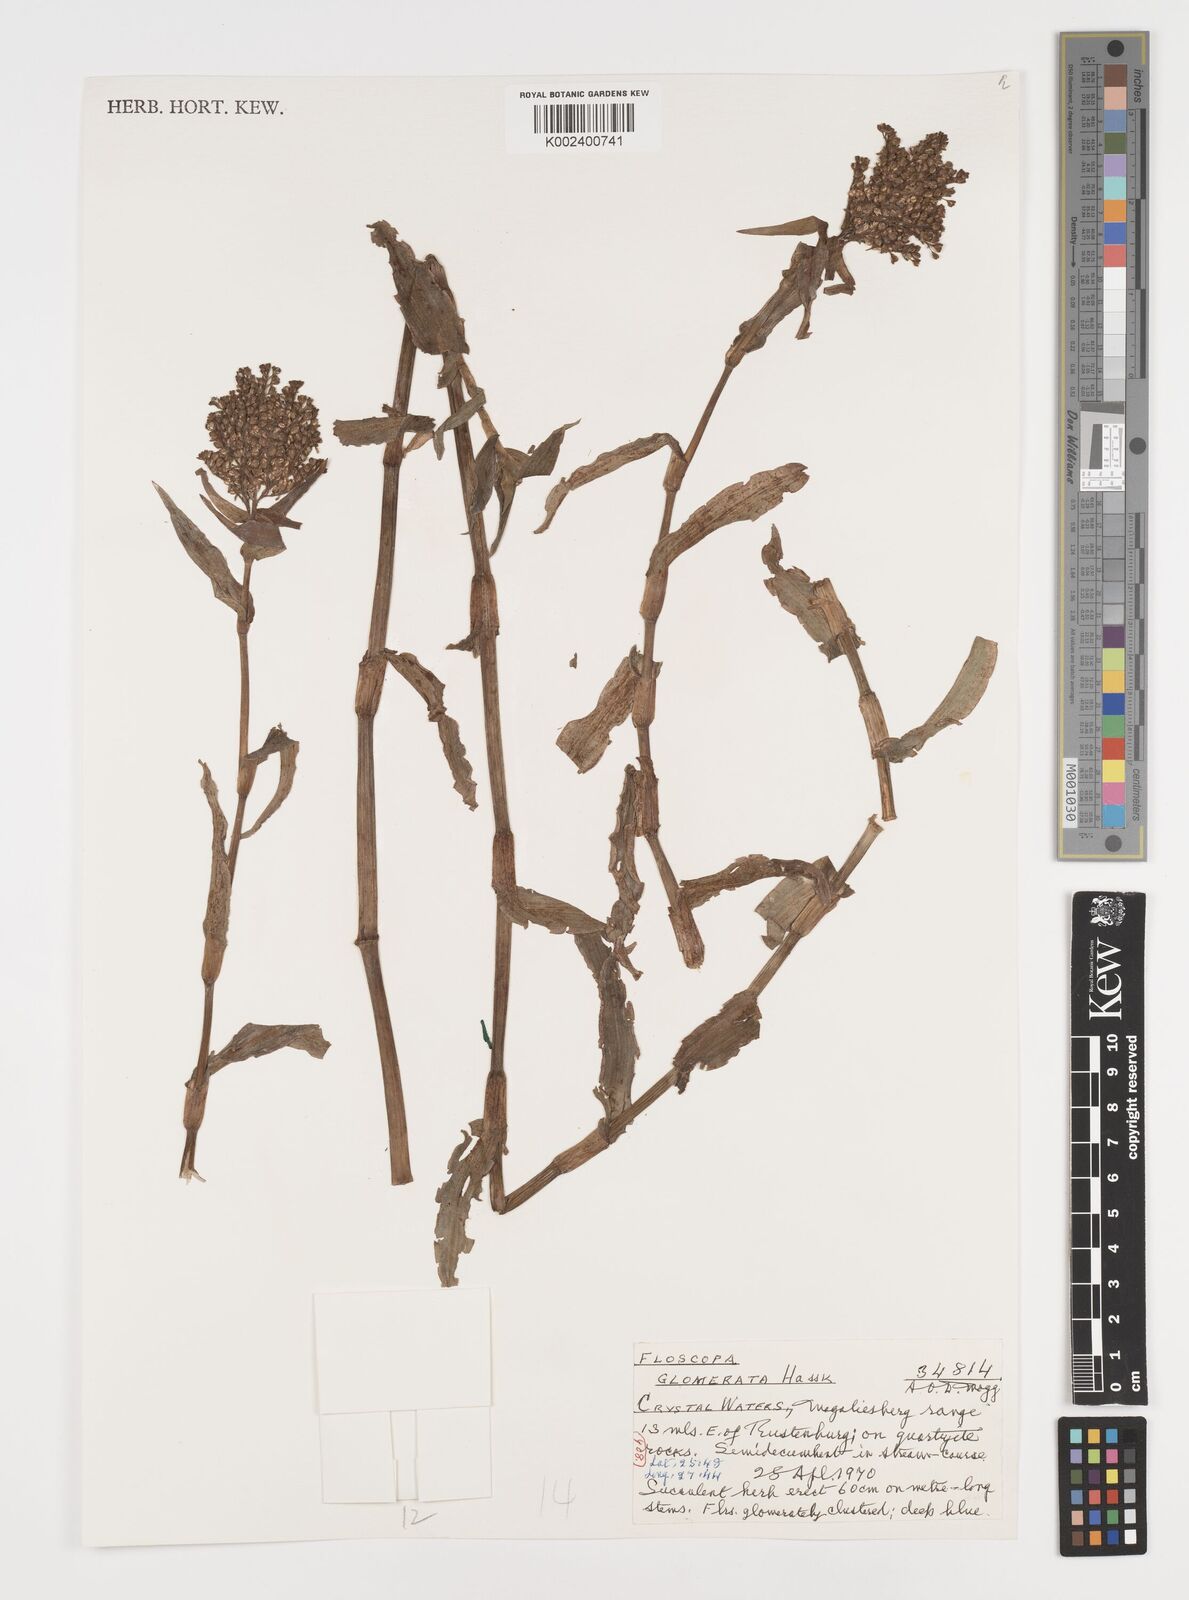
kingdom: Plantae
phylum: Tracheophyta
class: Liliopsida
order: Commelinales
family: Commelinaceae
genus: Floscopa
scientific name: Floscopa glomerata
